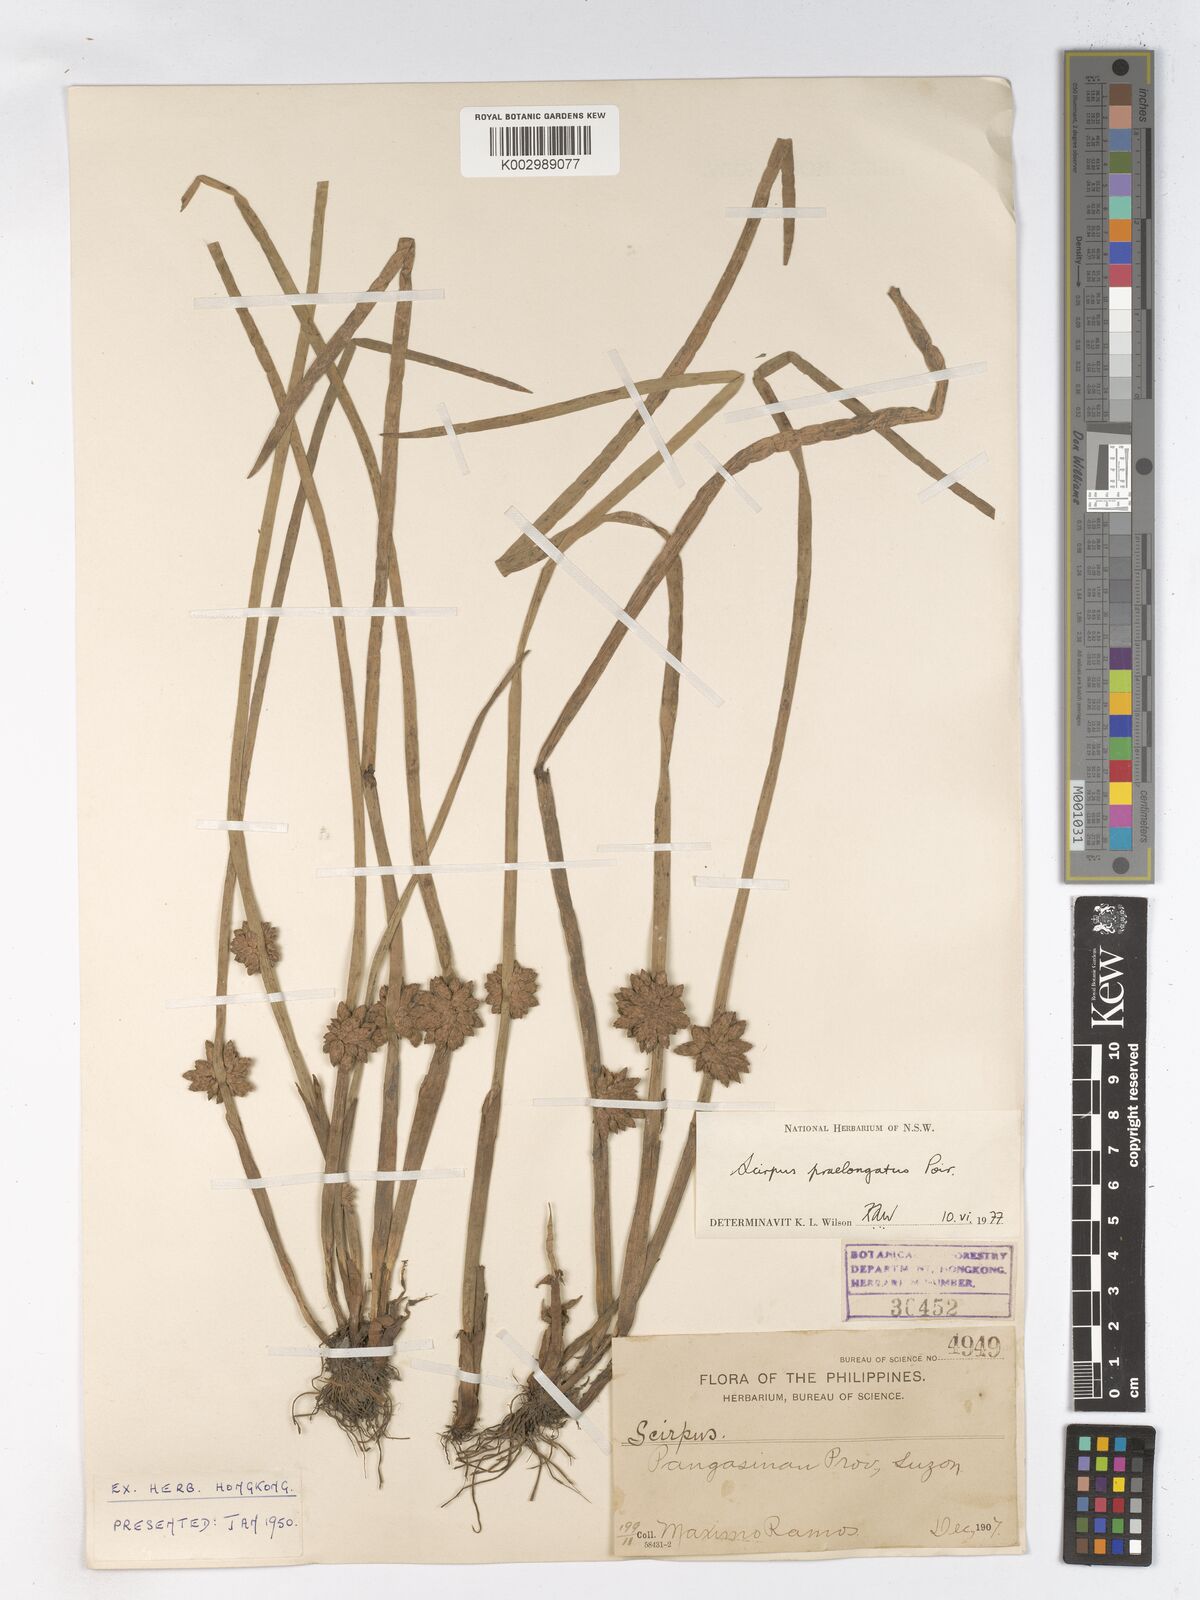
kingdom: Plantae
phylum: Tracheophyta
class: Liliopsida
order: Poales
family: Cyperaceae
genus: Schoenoplectiella
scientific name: Schoenoplectiella praelongata
